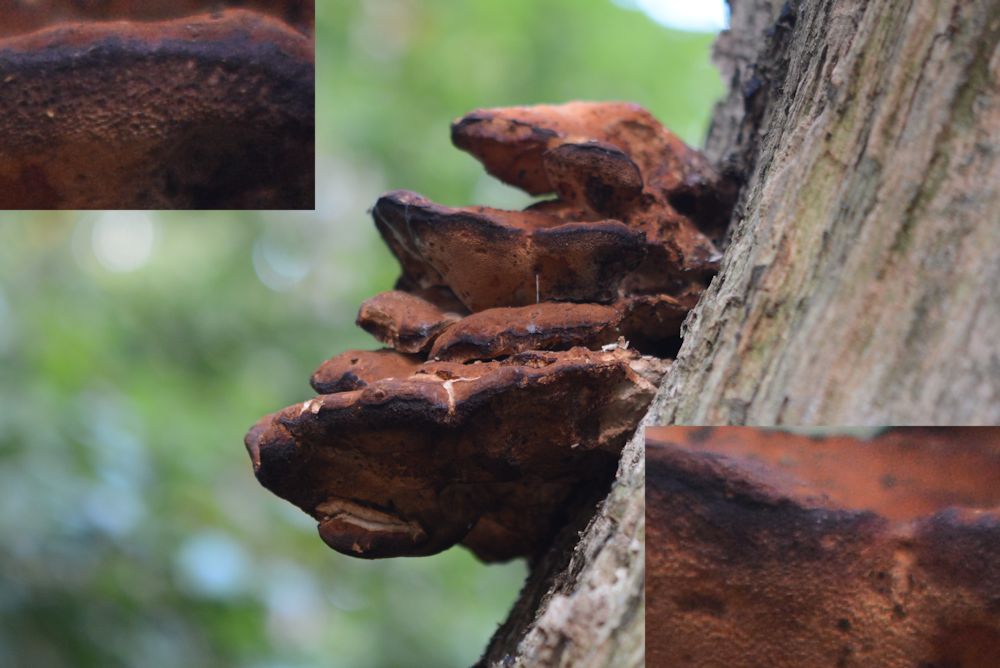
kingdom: Fungi
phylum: Basidiomycota
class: Agaricomycetes
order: Polyporales
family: Laetiporaceae
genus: Laetiporus
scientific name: Laetiporus sulphureus
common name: svovlporesvamp
